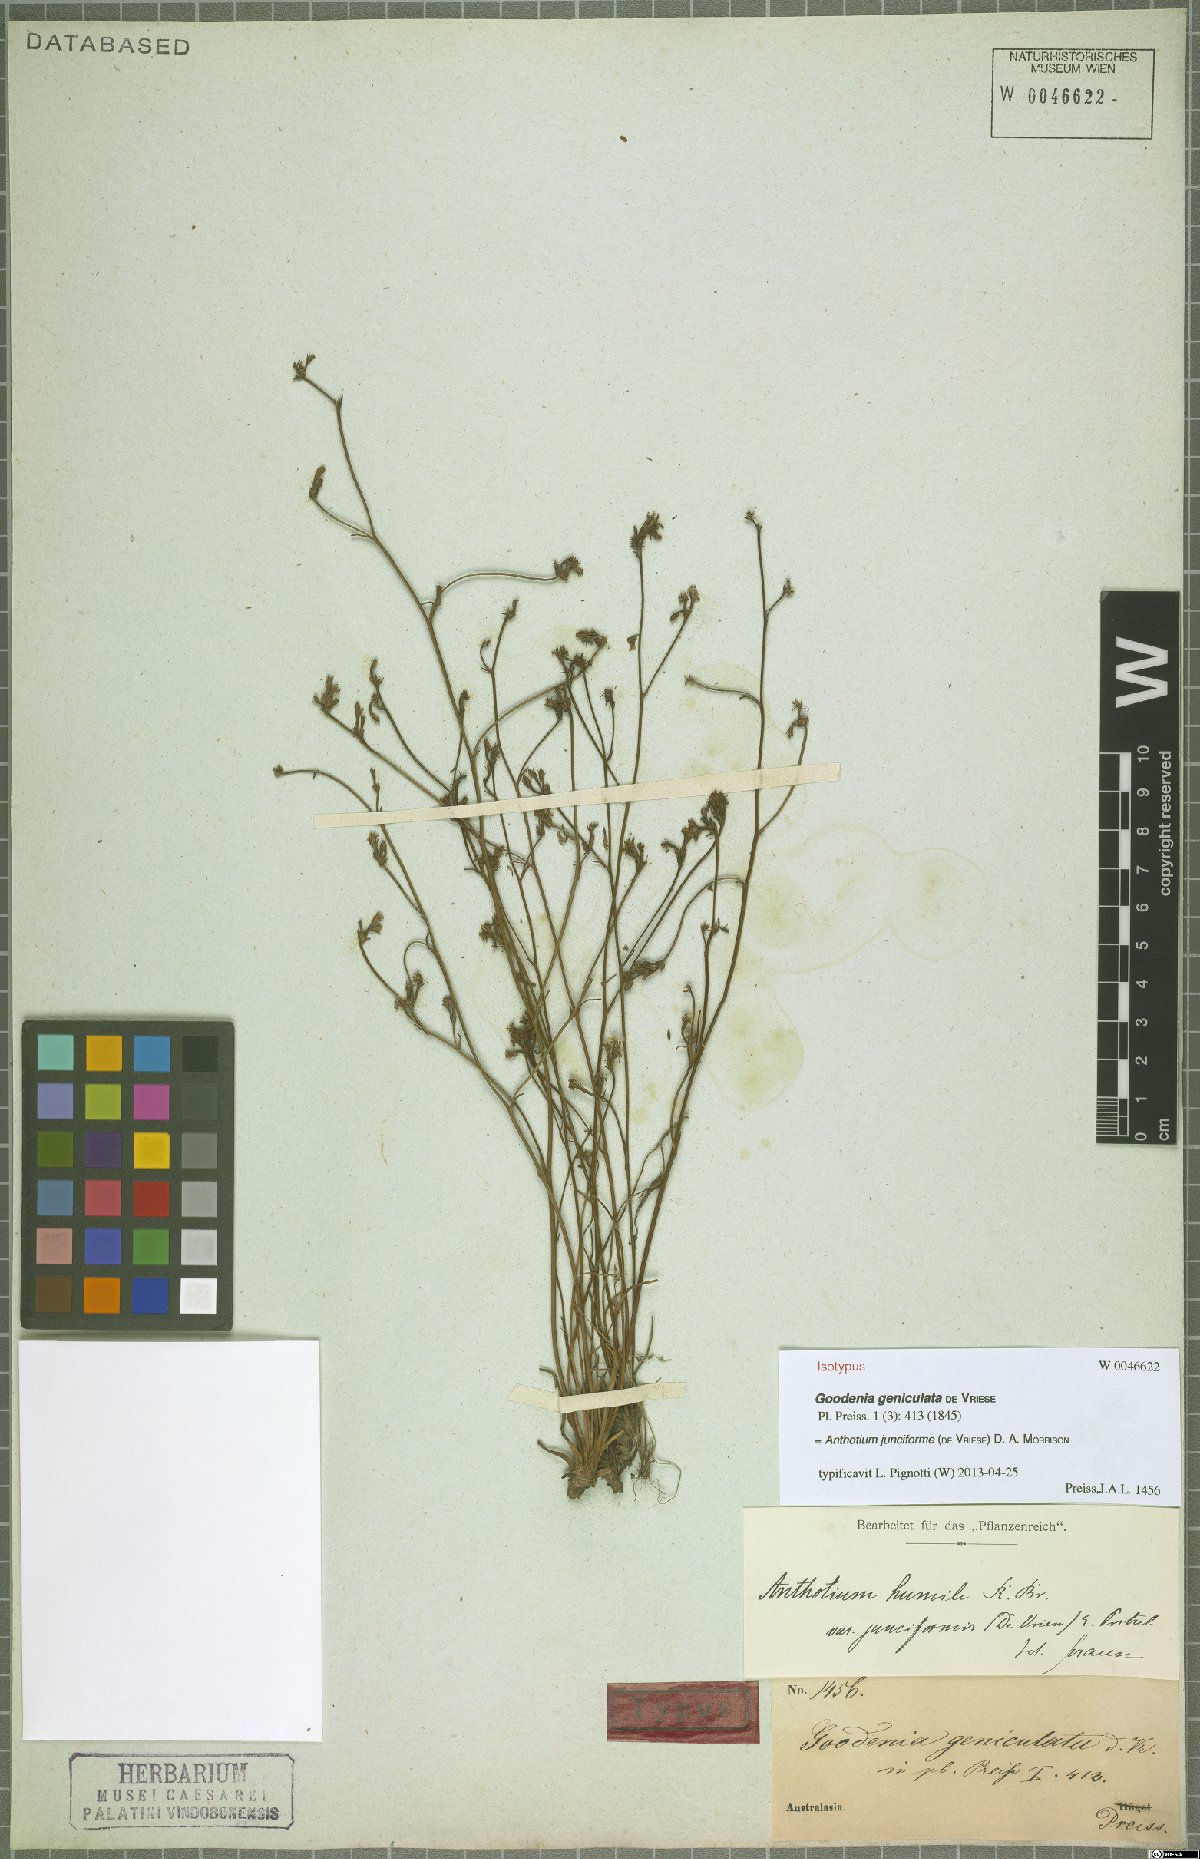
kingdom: Plantae
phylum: Tracheophyta
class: Magnoliopsida
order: Asterales
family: Goodeniaceae
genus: Anthotium
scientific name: Anthotium junciforme
